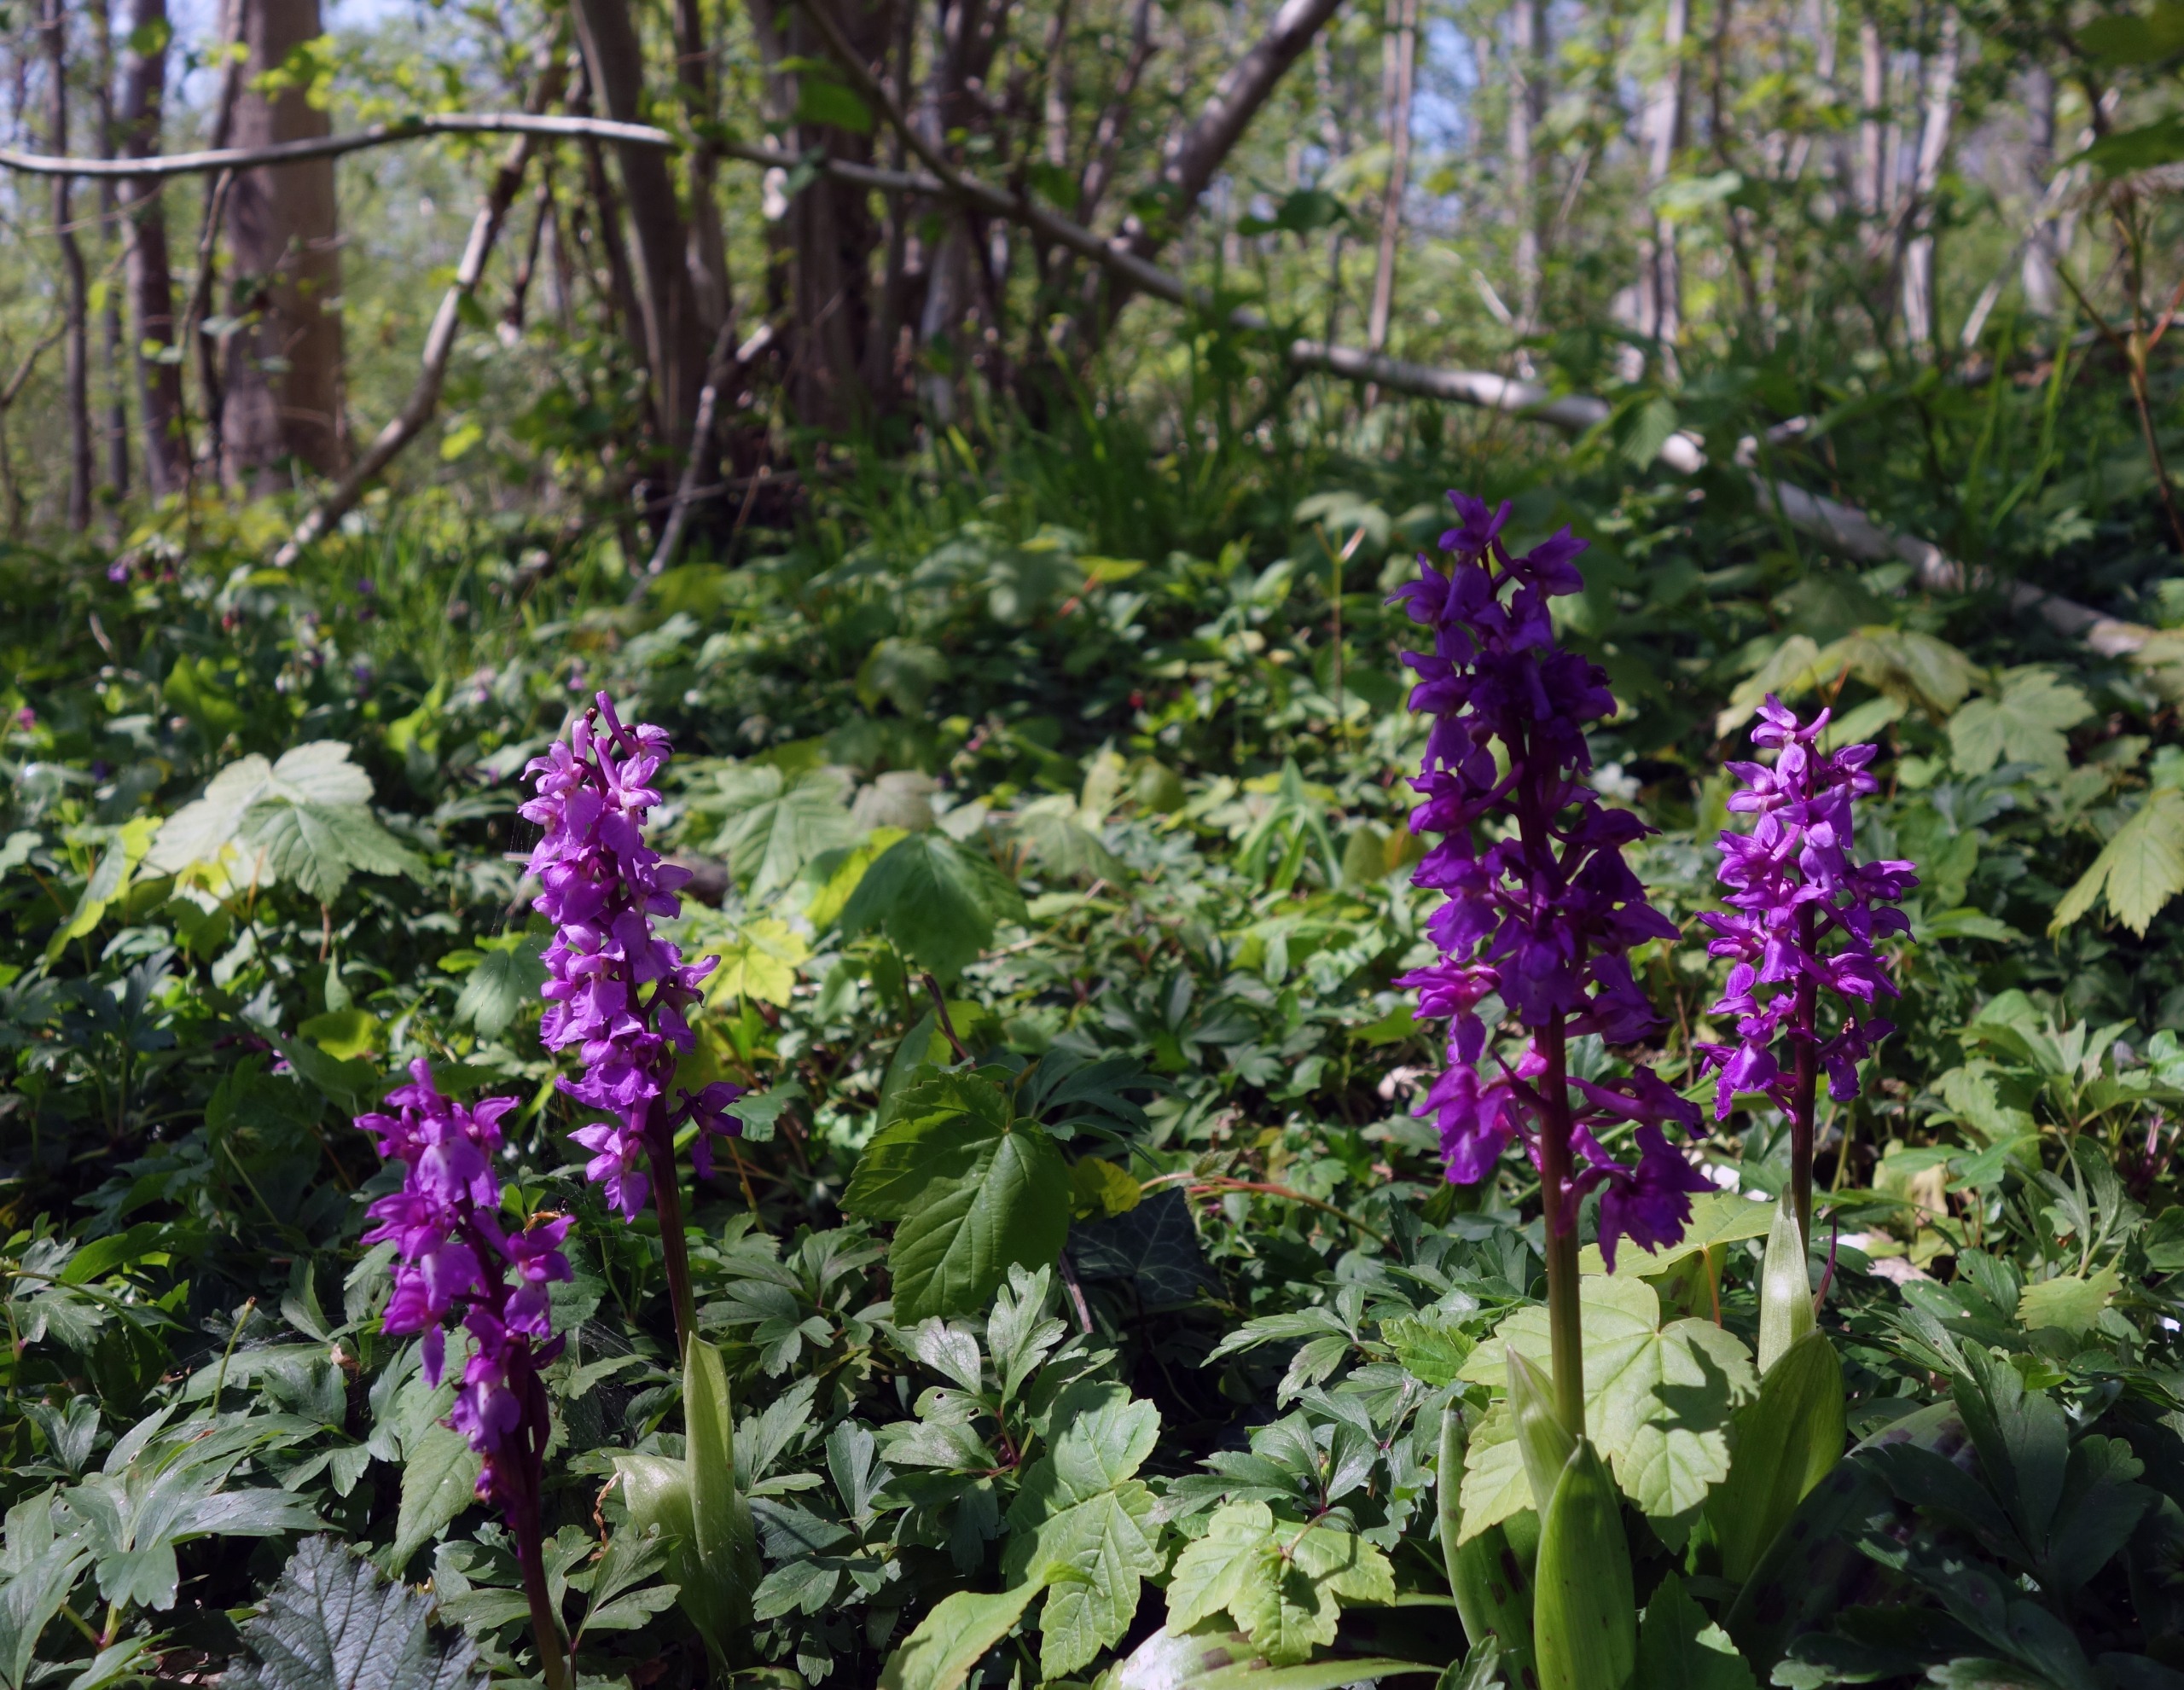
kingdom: Plantae
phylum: Tracheophyta
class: Liliopsida
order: Asparagales
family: Orchidaceae
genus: Orchis
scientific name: Orchis mascula
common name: Tyndakset gøgeurt
